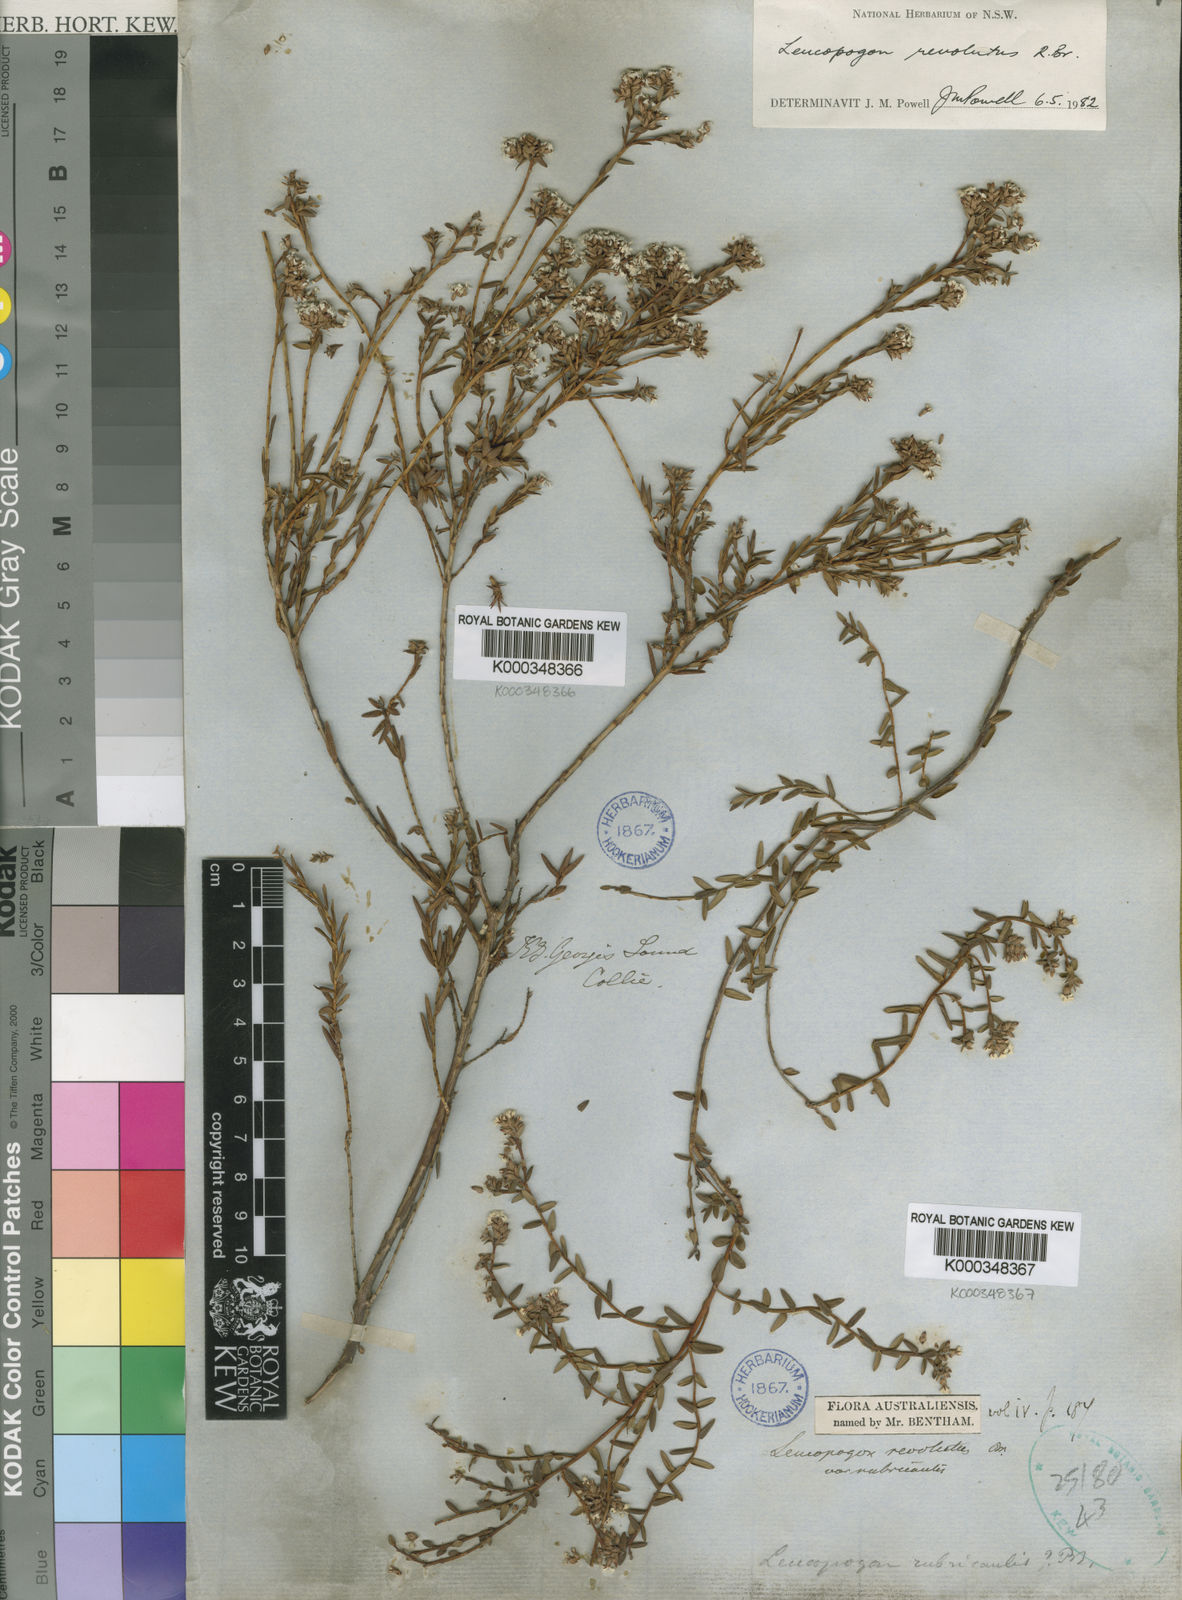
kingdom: Plantae
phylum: Tracheophyta
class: Magnoliopsida
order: Ericales
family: Ericaceae
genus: Leucopogon
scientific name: Leucopogon obovatus
